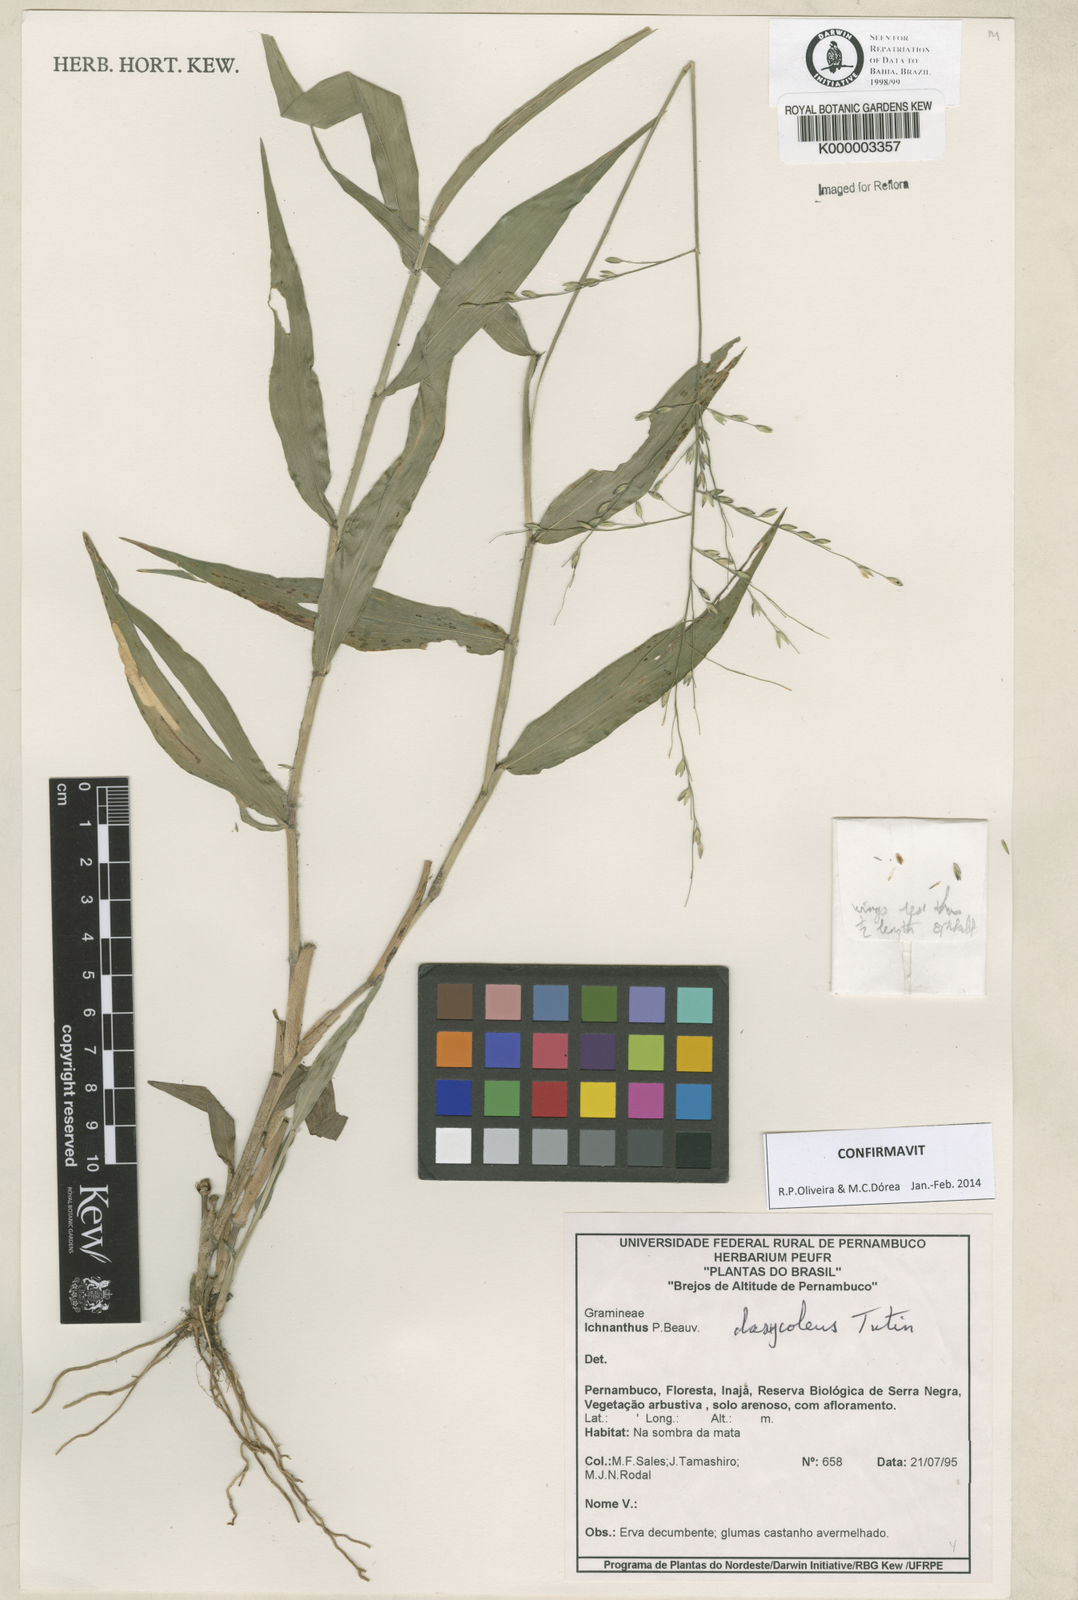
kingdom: Plantae
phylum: Tracheophyta
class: Liliopsida
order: Poales
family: Poaceae
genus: Ichnanthus
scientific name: Ichnanthus dasycoleus
